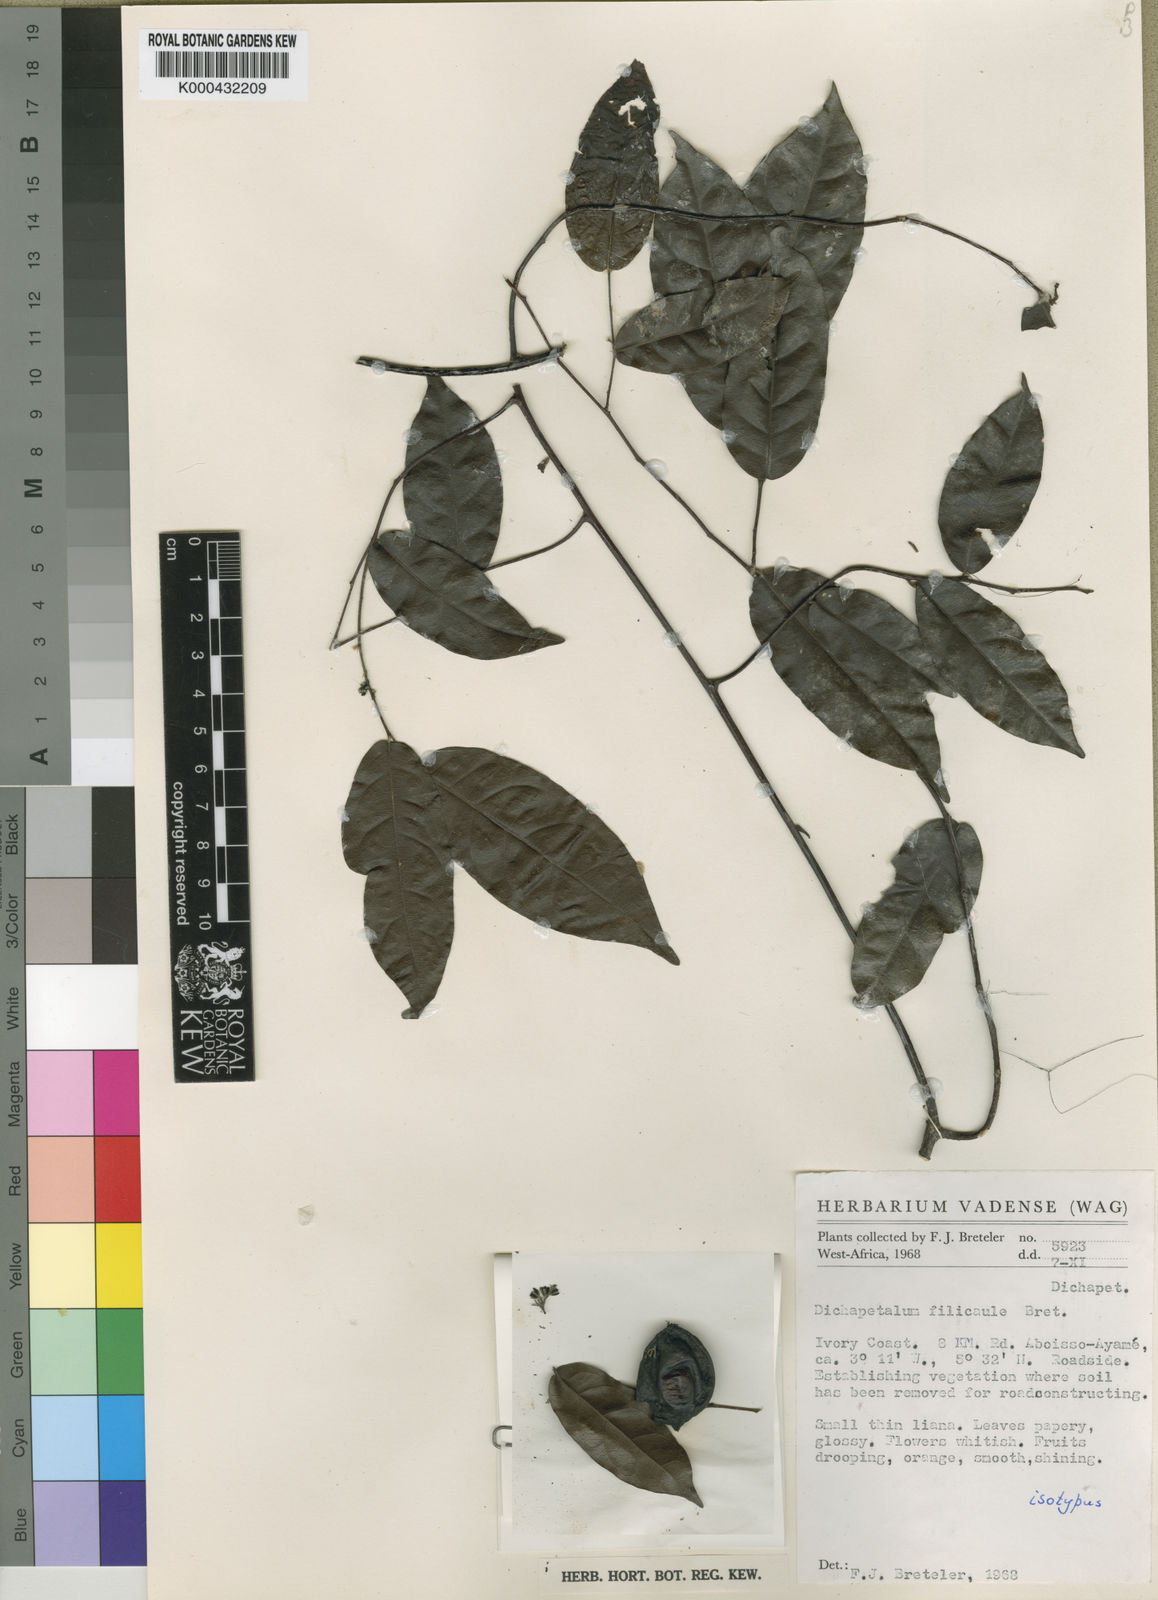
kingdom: Plantae
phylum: Tracheophyta
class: Magnoliopsida
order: Malpighiales
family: Dichapetalaceae
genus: Dichapetalum
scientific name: Dichapetalum filicaule
